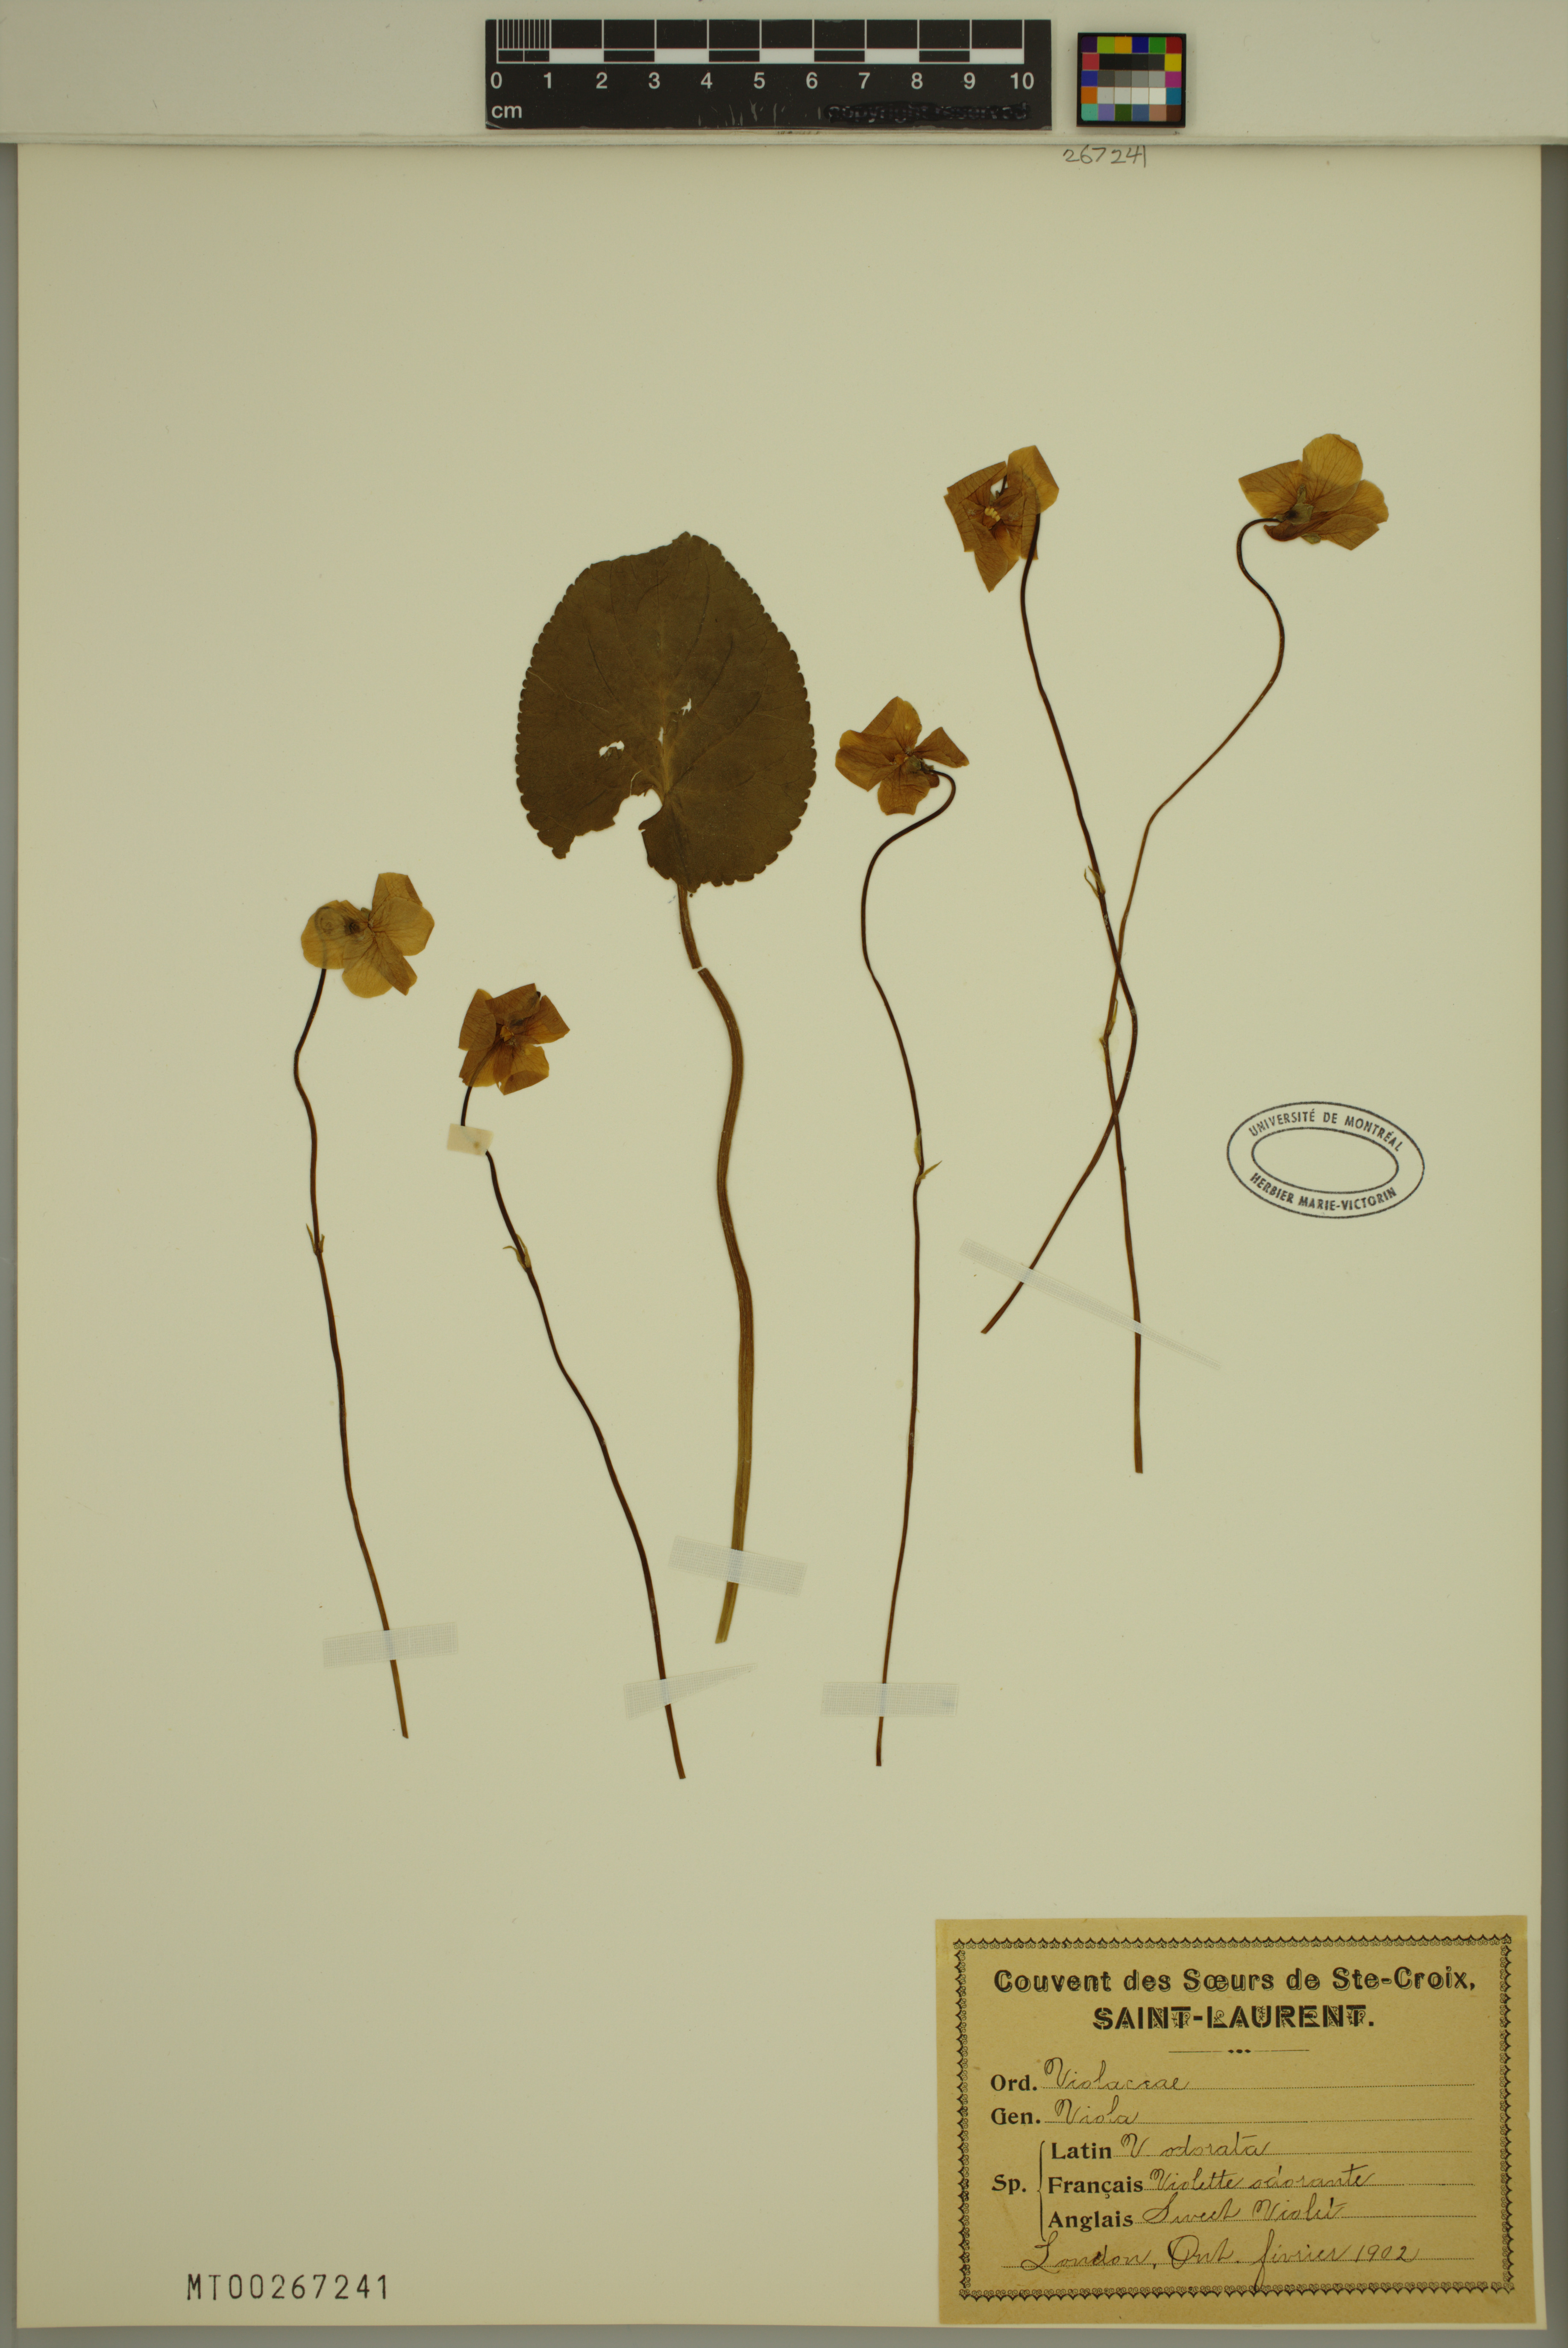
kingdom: Plantae
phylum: Tracheophyta
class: Magnoliopsida
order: Malpighiales
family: Violaceae
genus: Viola
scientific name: Viola odorata
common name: Sweet violet
